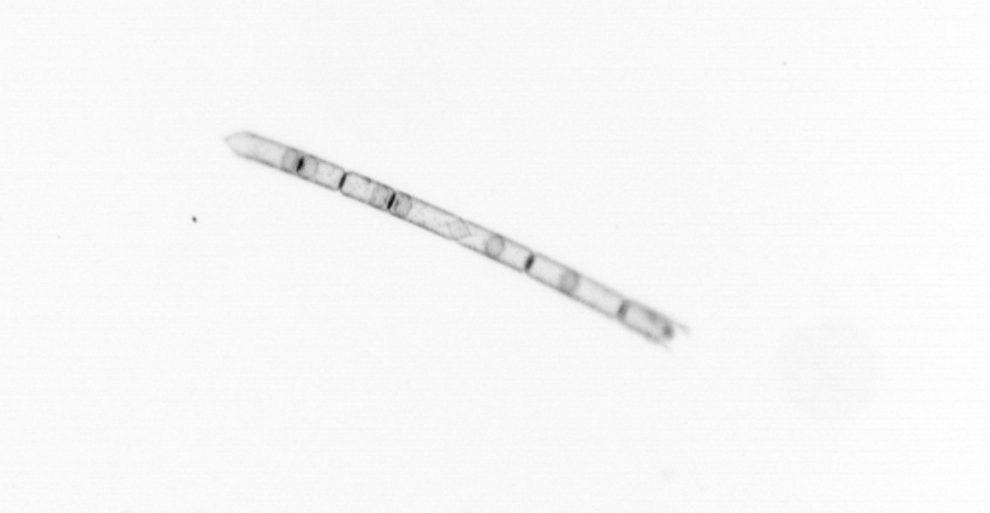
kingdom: Chromista
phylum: Ochrophyta
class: Bacillariophyceae
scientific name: Bacillariophyceae
